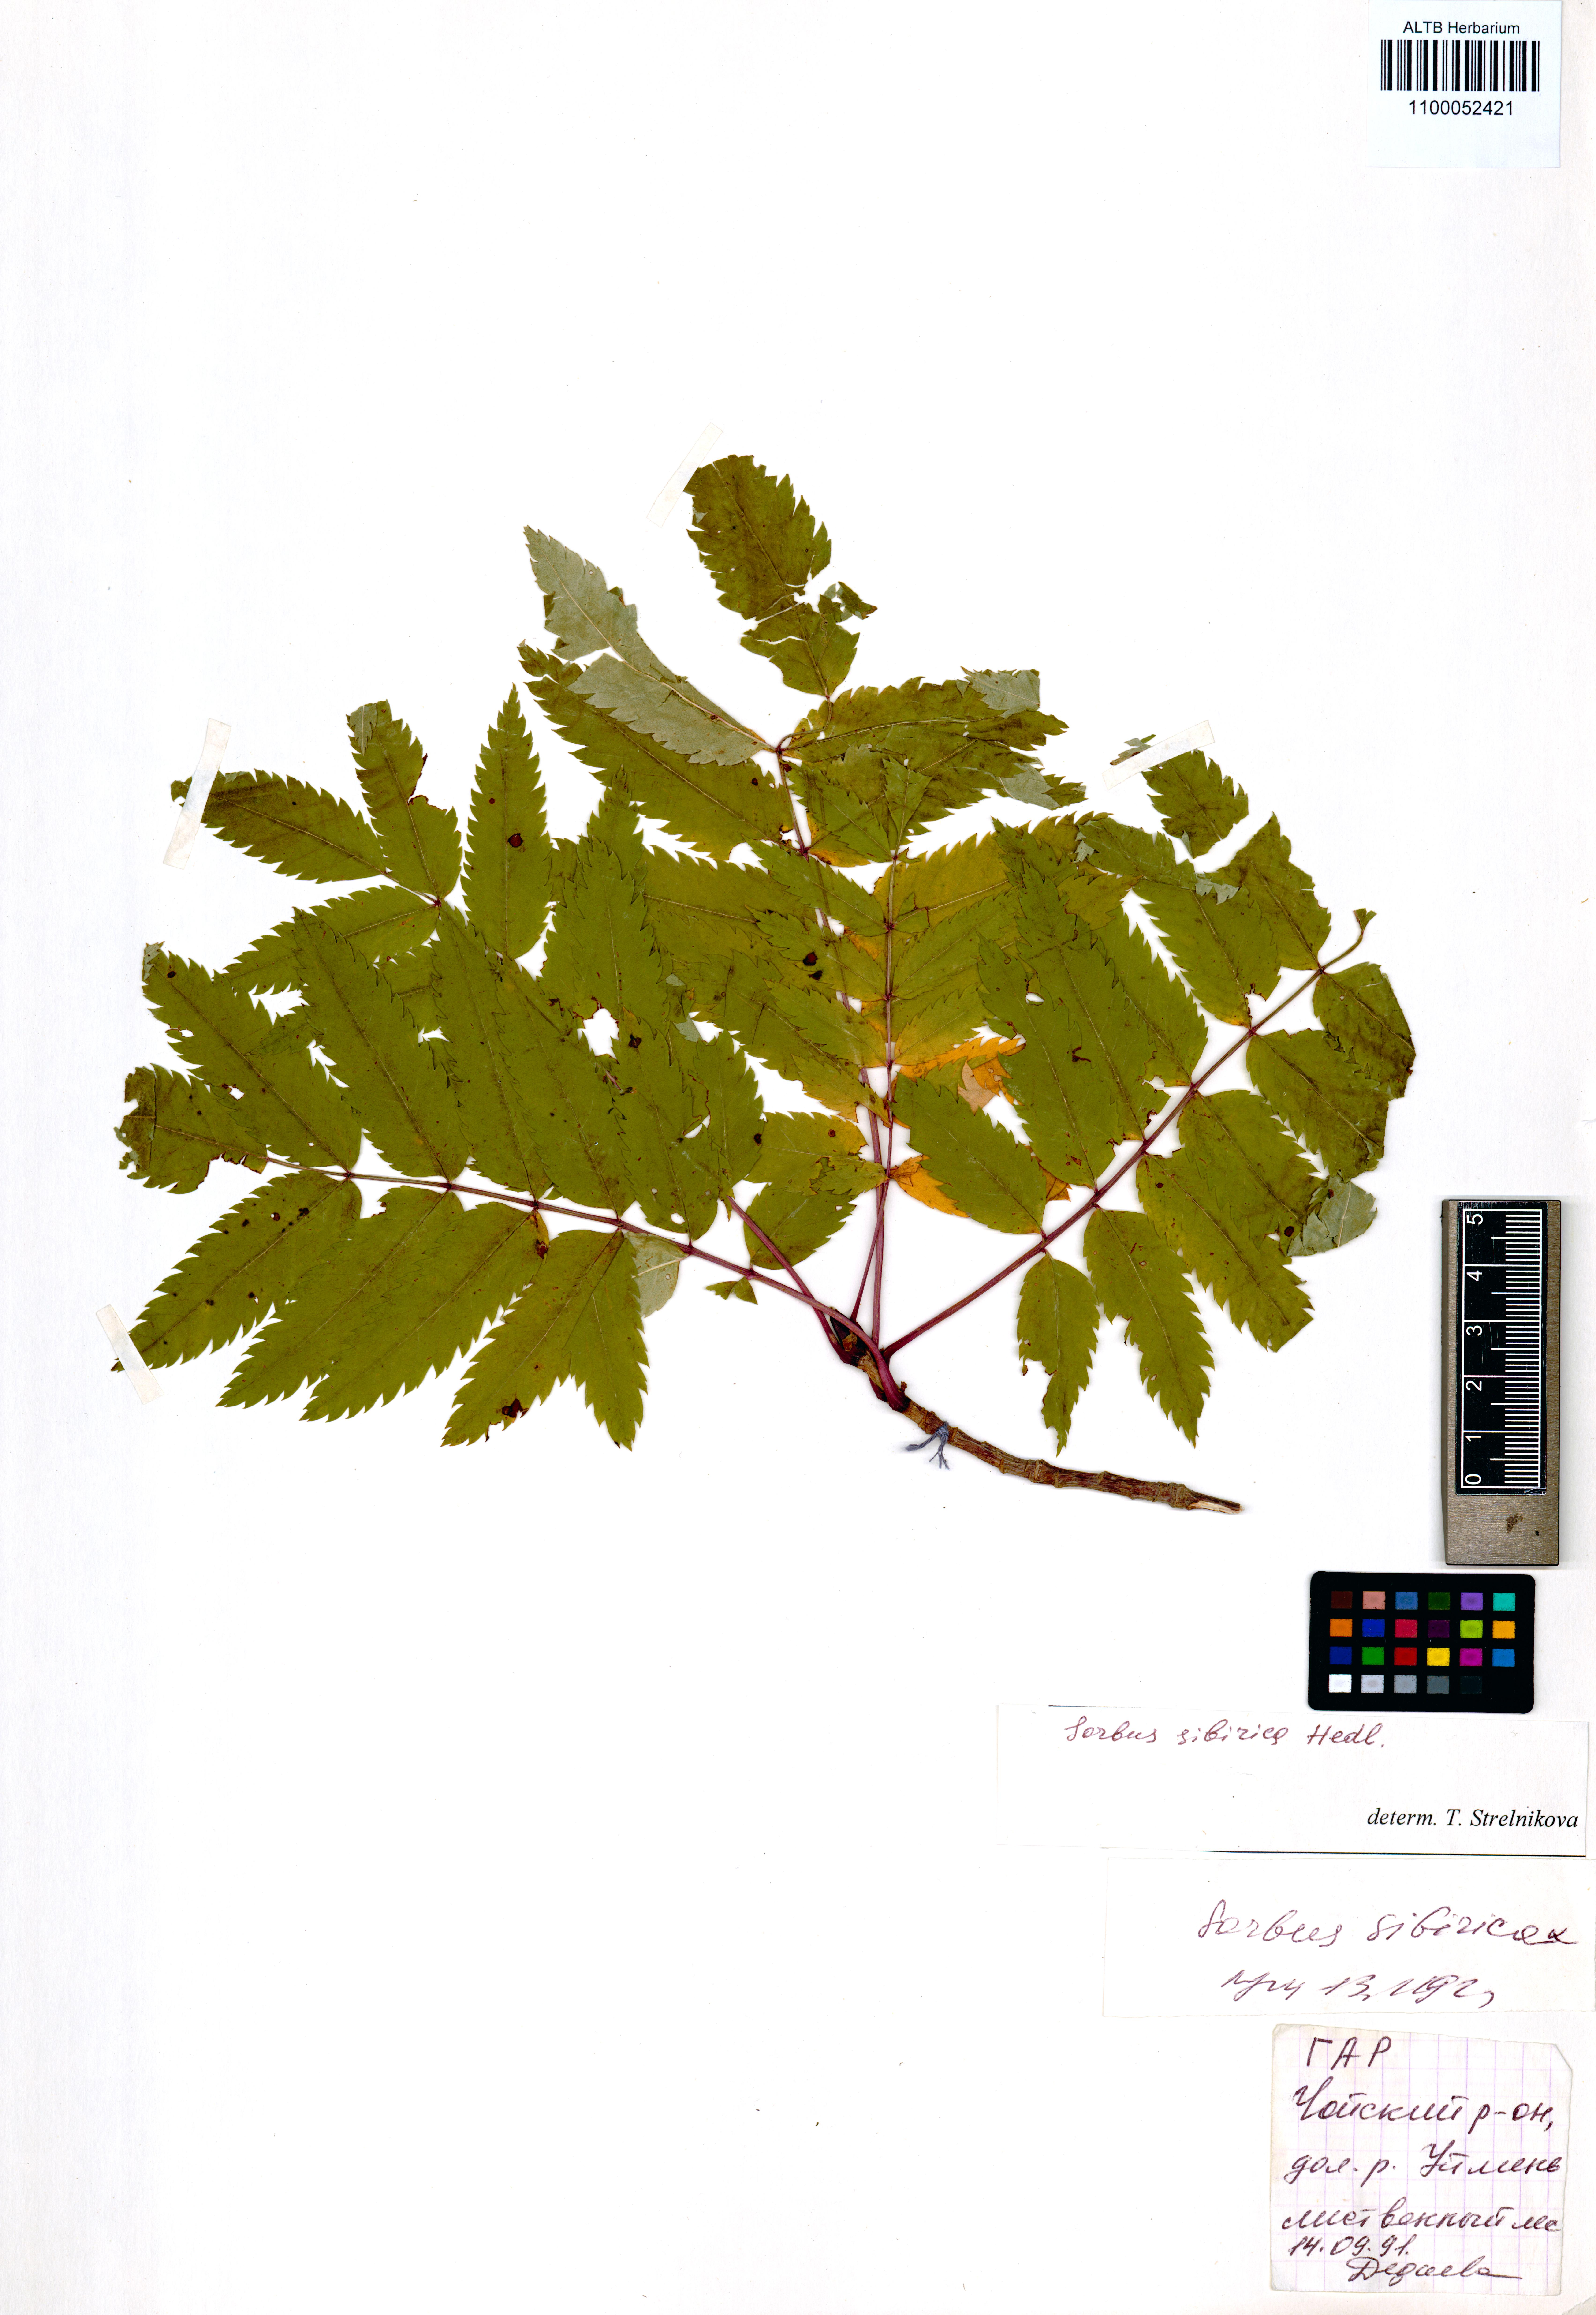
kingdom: Plantae
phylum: Tracheophyta
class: Magnoliopsida
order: Rosales
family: Rosaceae
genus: Sorbus
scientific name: Sorbus aucuparia
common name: Rowan
